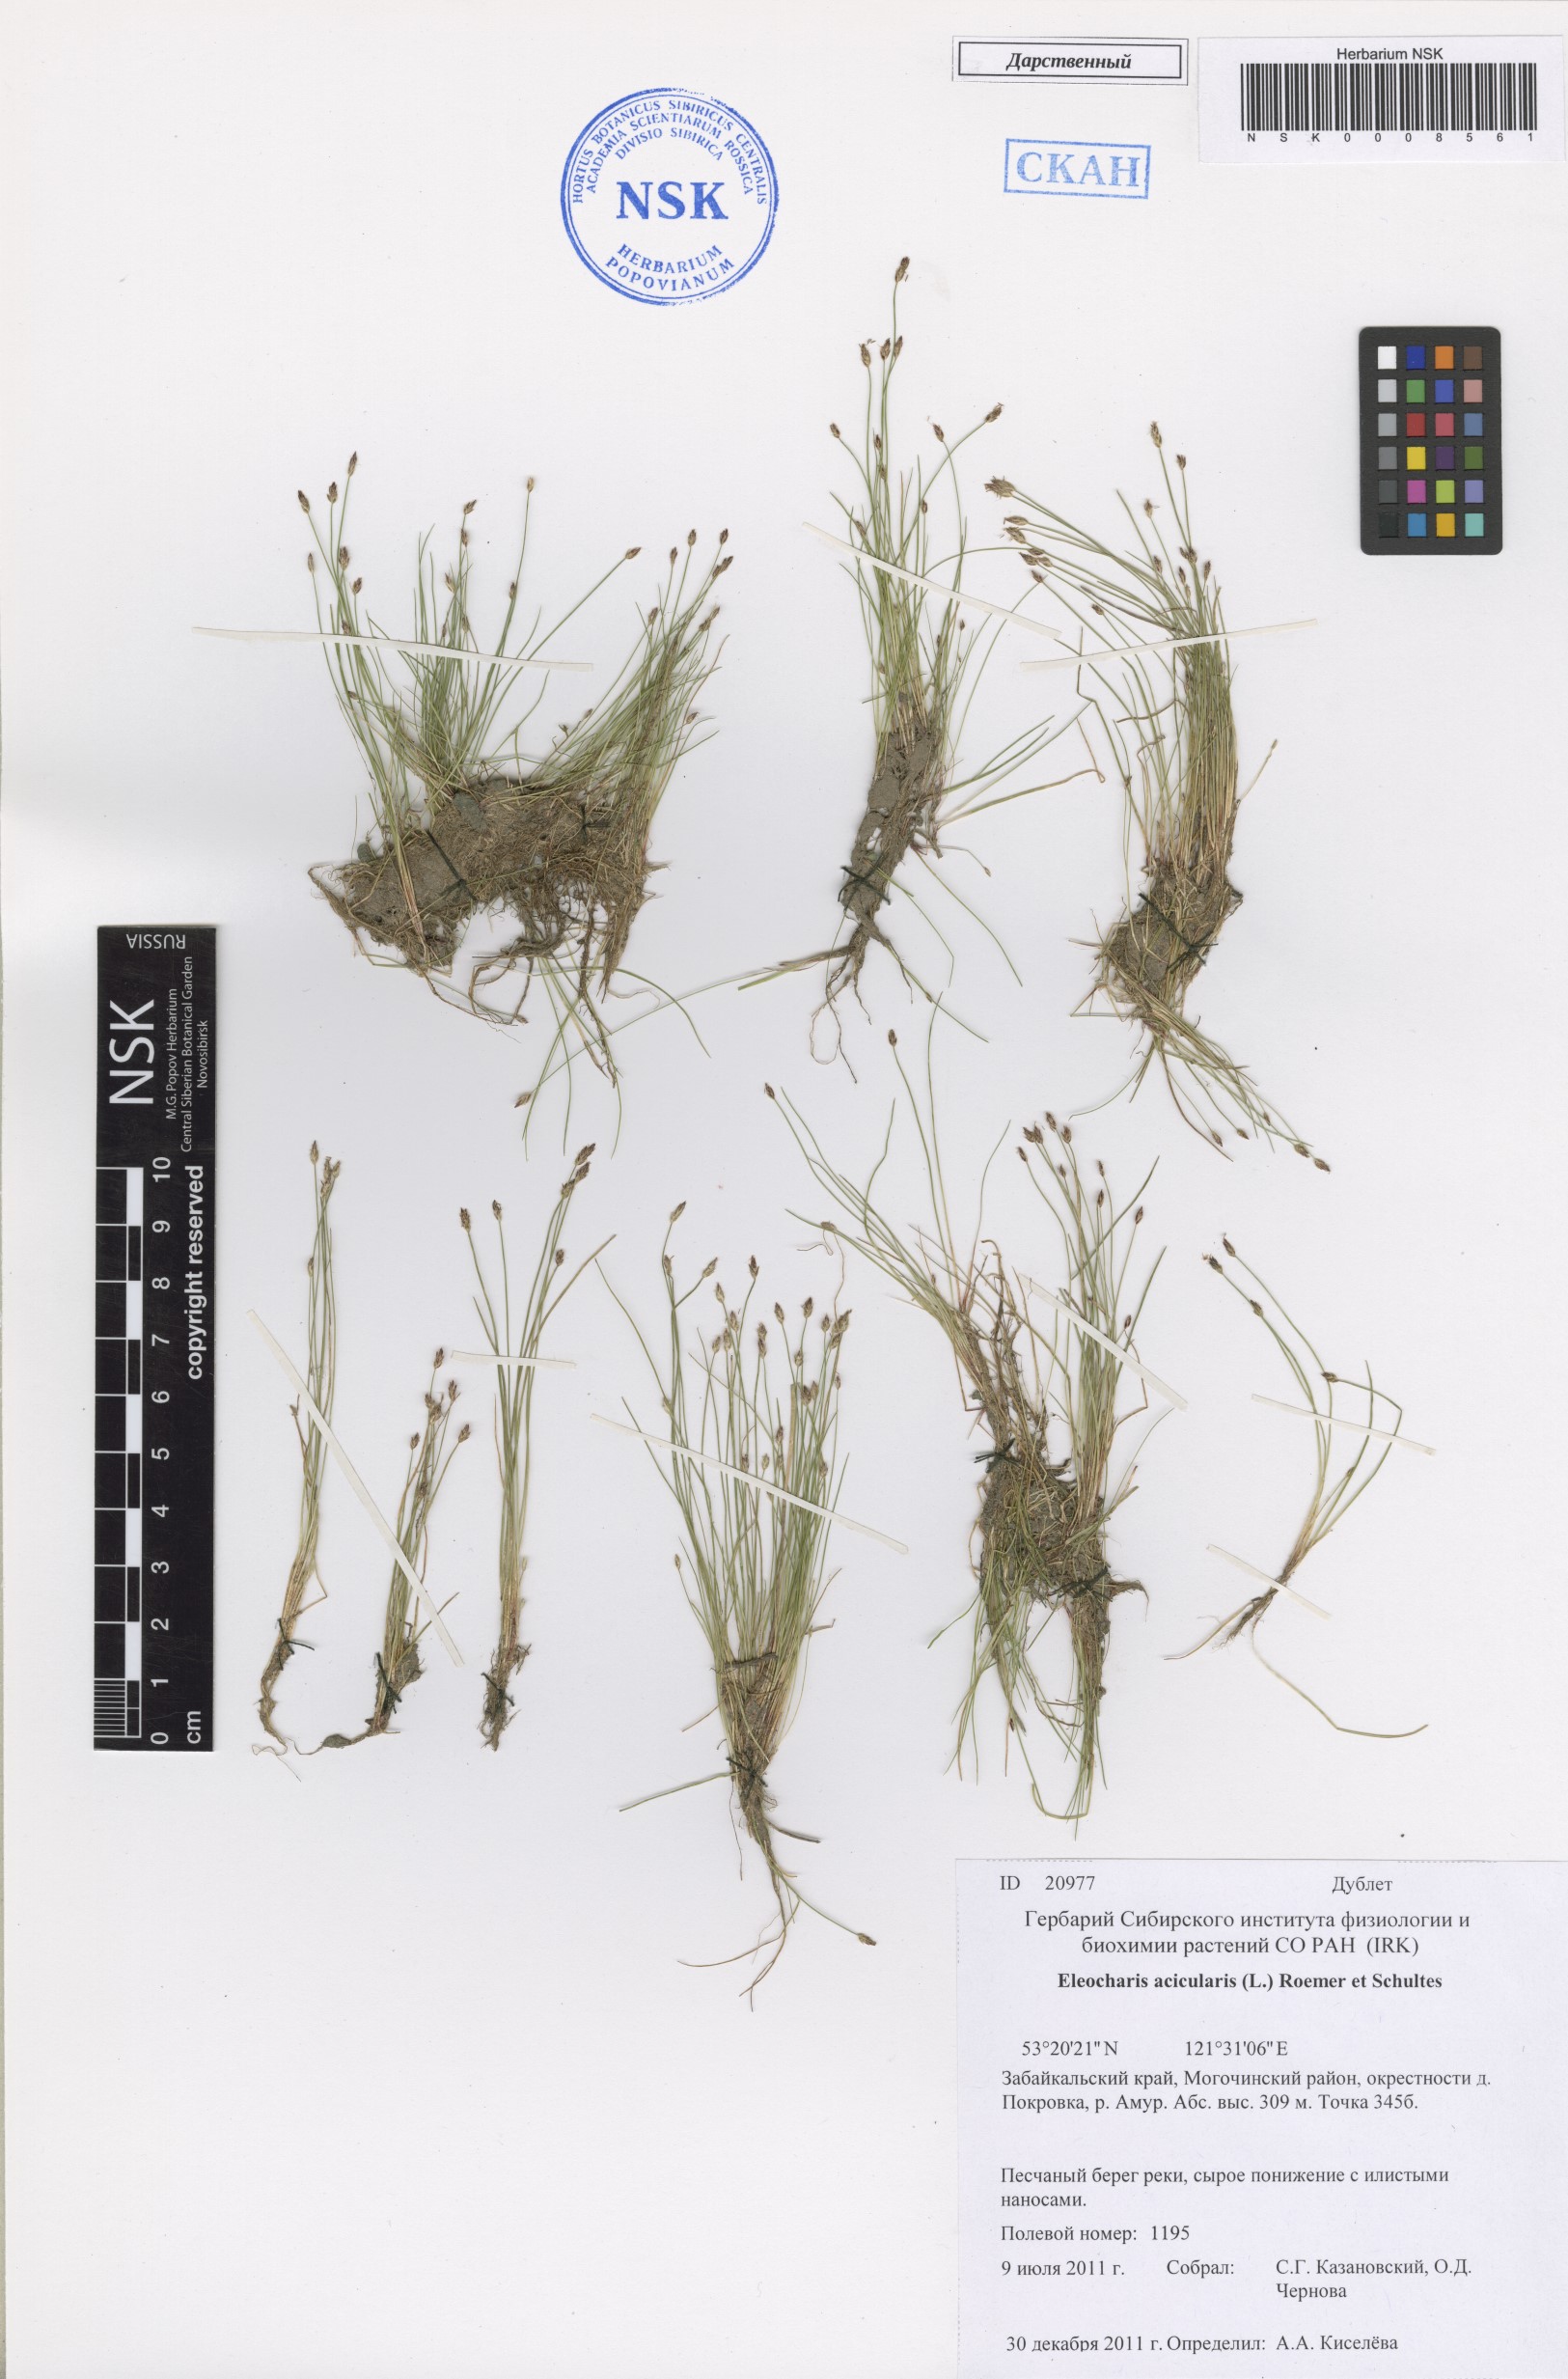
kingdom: Plantae
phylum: Tracheophyta
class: Liliopsida
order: Poales
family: Cyperaceae
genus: Eleocharis
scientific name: Eleocharis acicularis
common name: Needle spike-rush
